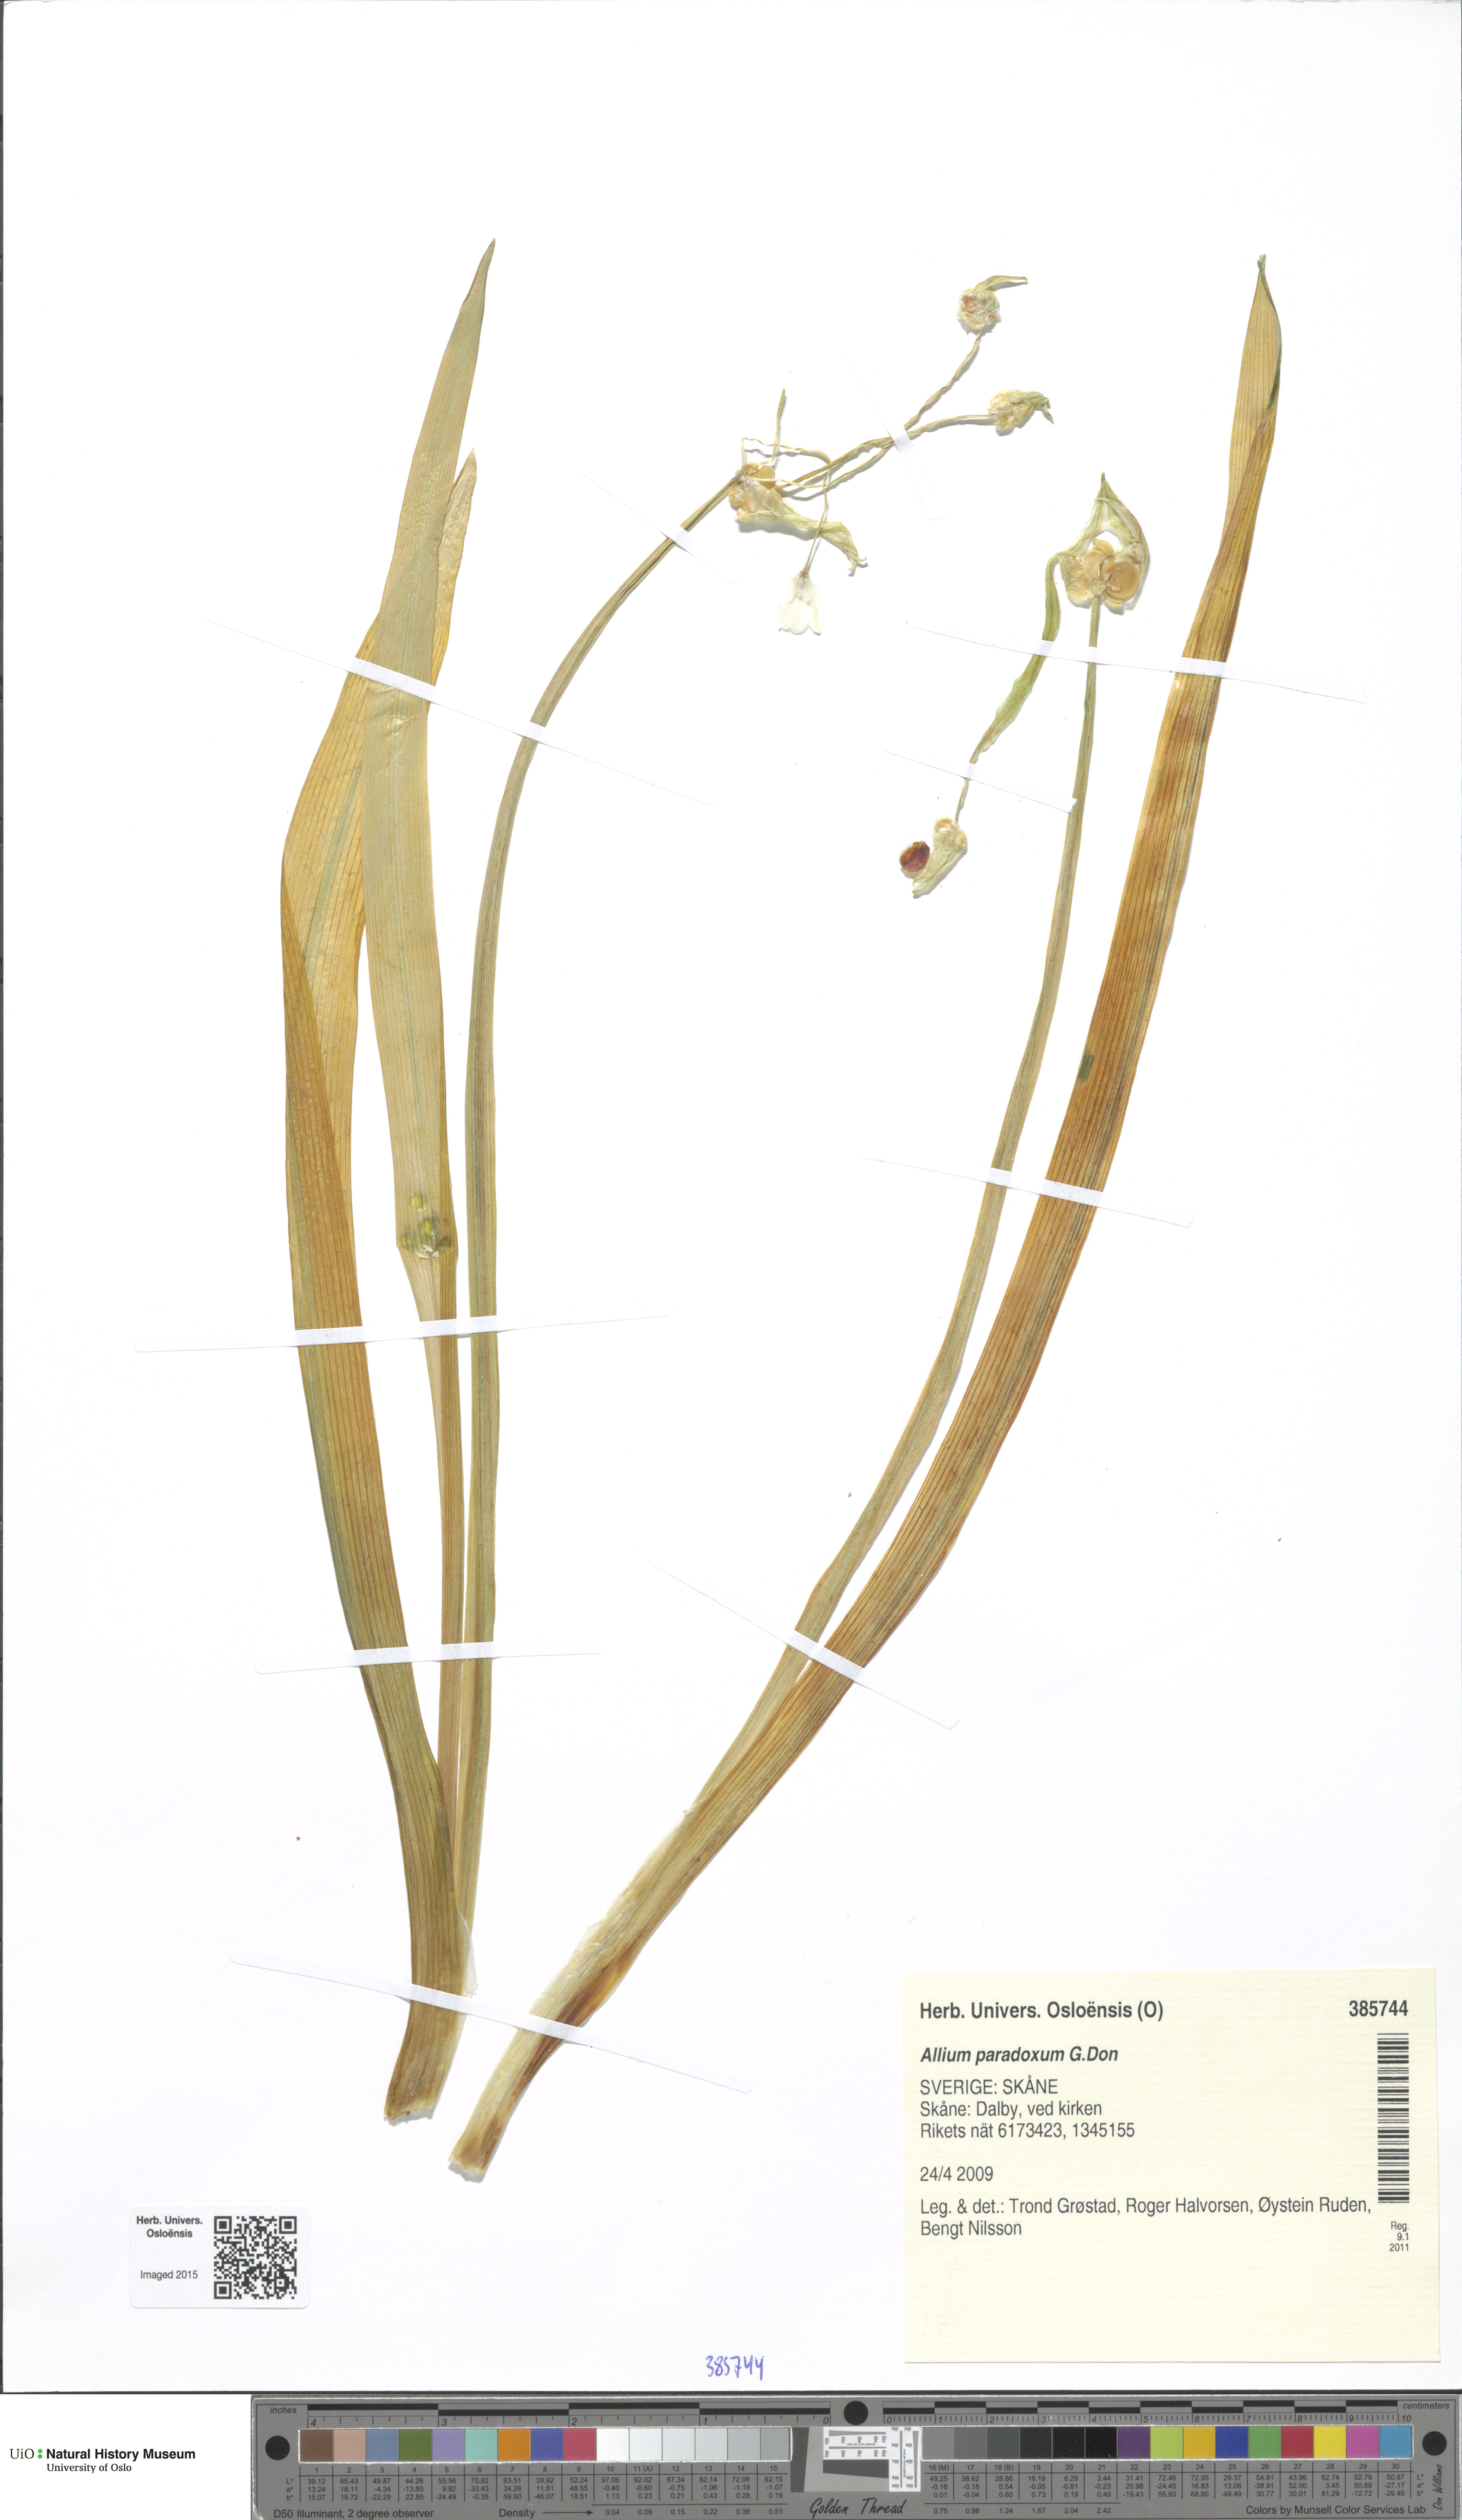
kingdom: Plantae
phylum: Tracheophyta
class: Liliopsida
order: Asparagales
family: Amaryllidaceae
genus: Allium
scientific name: Allium paradoxum
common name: Few-flowered garlic
